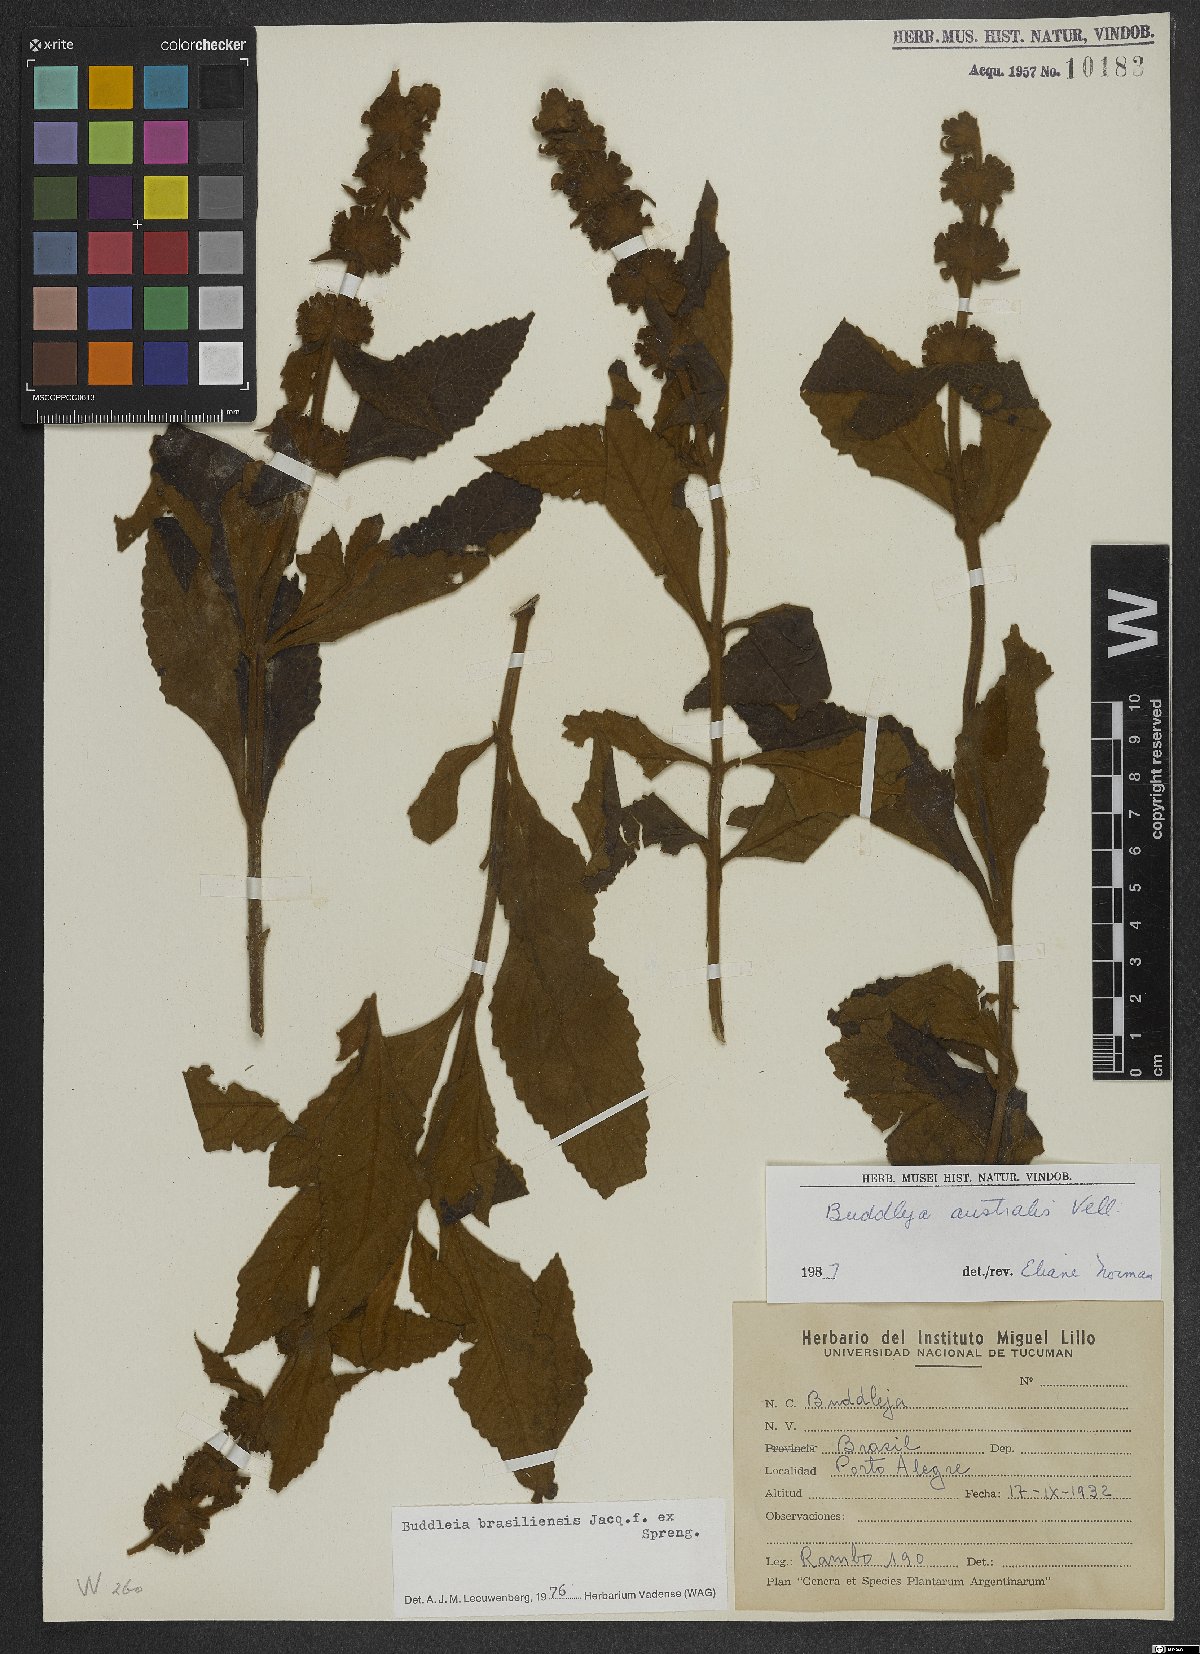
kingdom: Plantae
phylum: Tracheophyta
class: Magnoliopsida
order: Lamiales
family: Scrophulariaceae
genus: Buddleja
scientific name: Buddleja stachyoides
